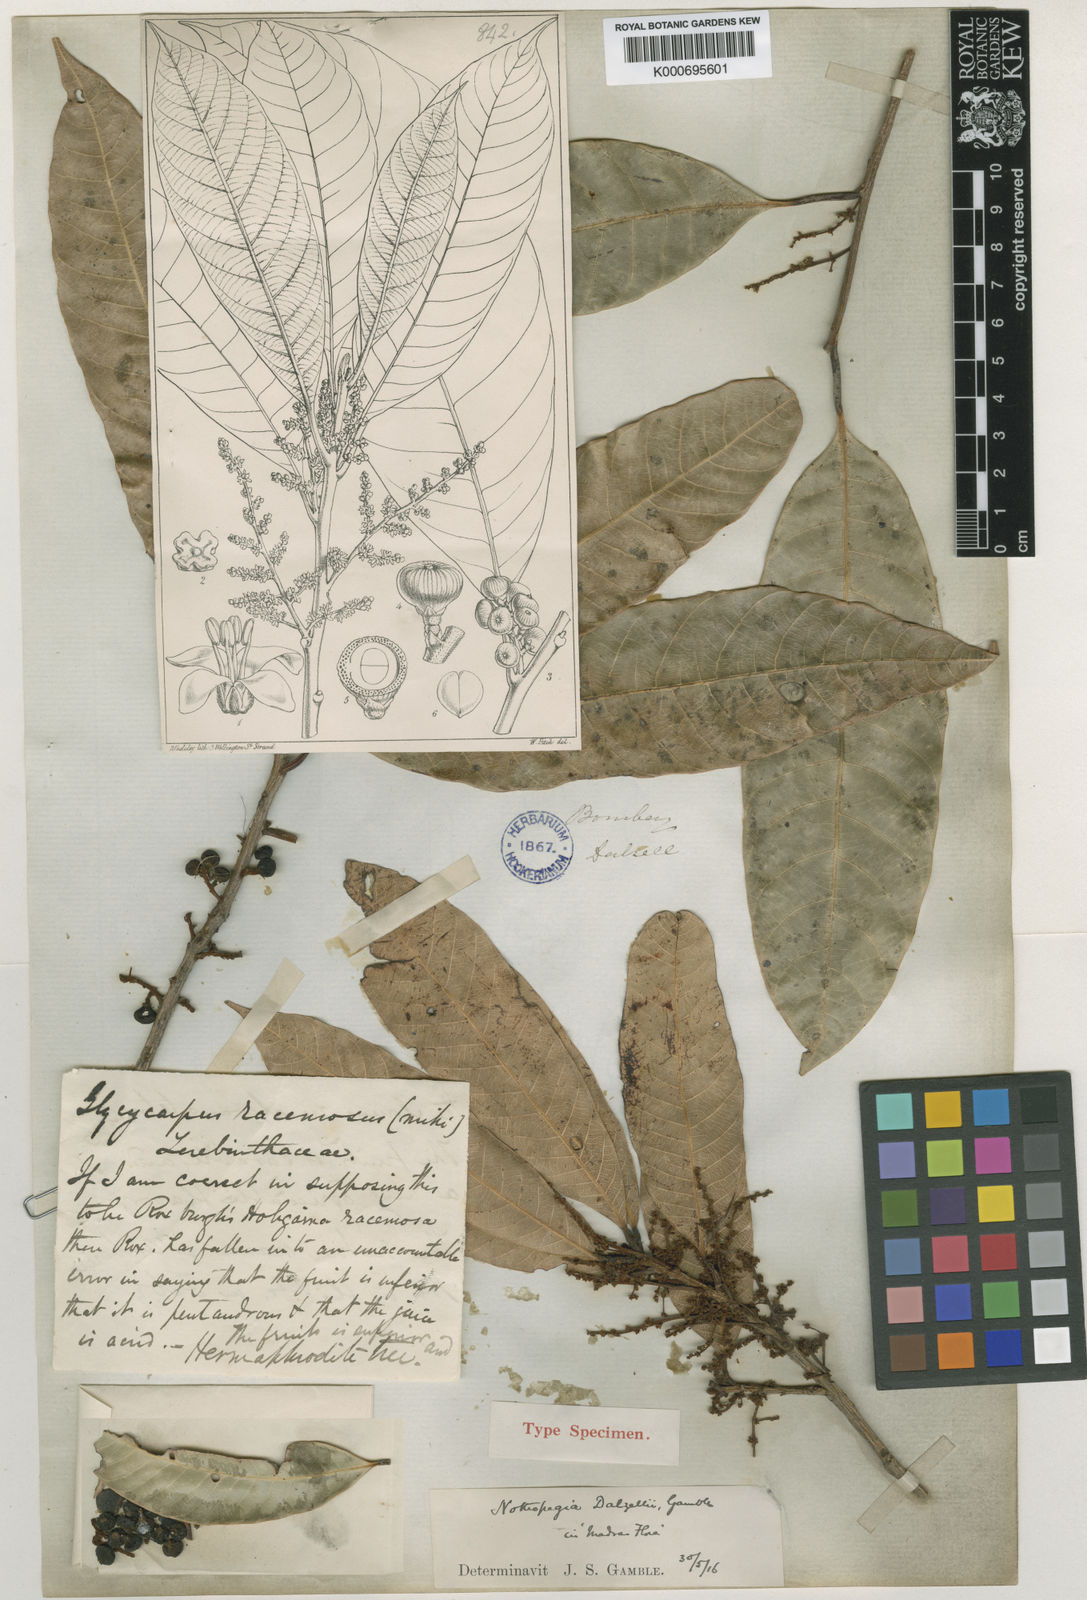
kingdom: Plantae
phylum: Tracheophyta
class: Magnoliopsida
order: Sapindales
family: Anacardiaceae
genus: Nothopegia
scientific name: Nothopegia castaneifolia
